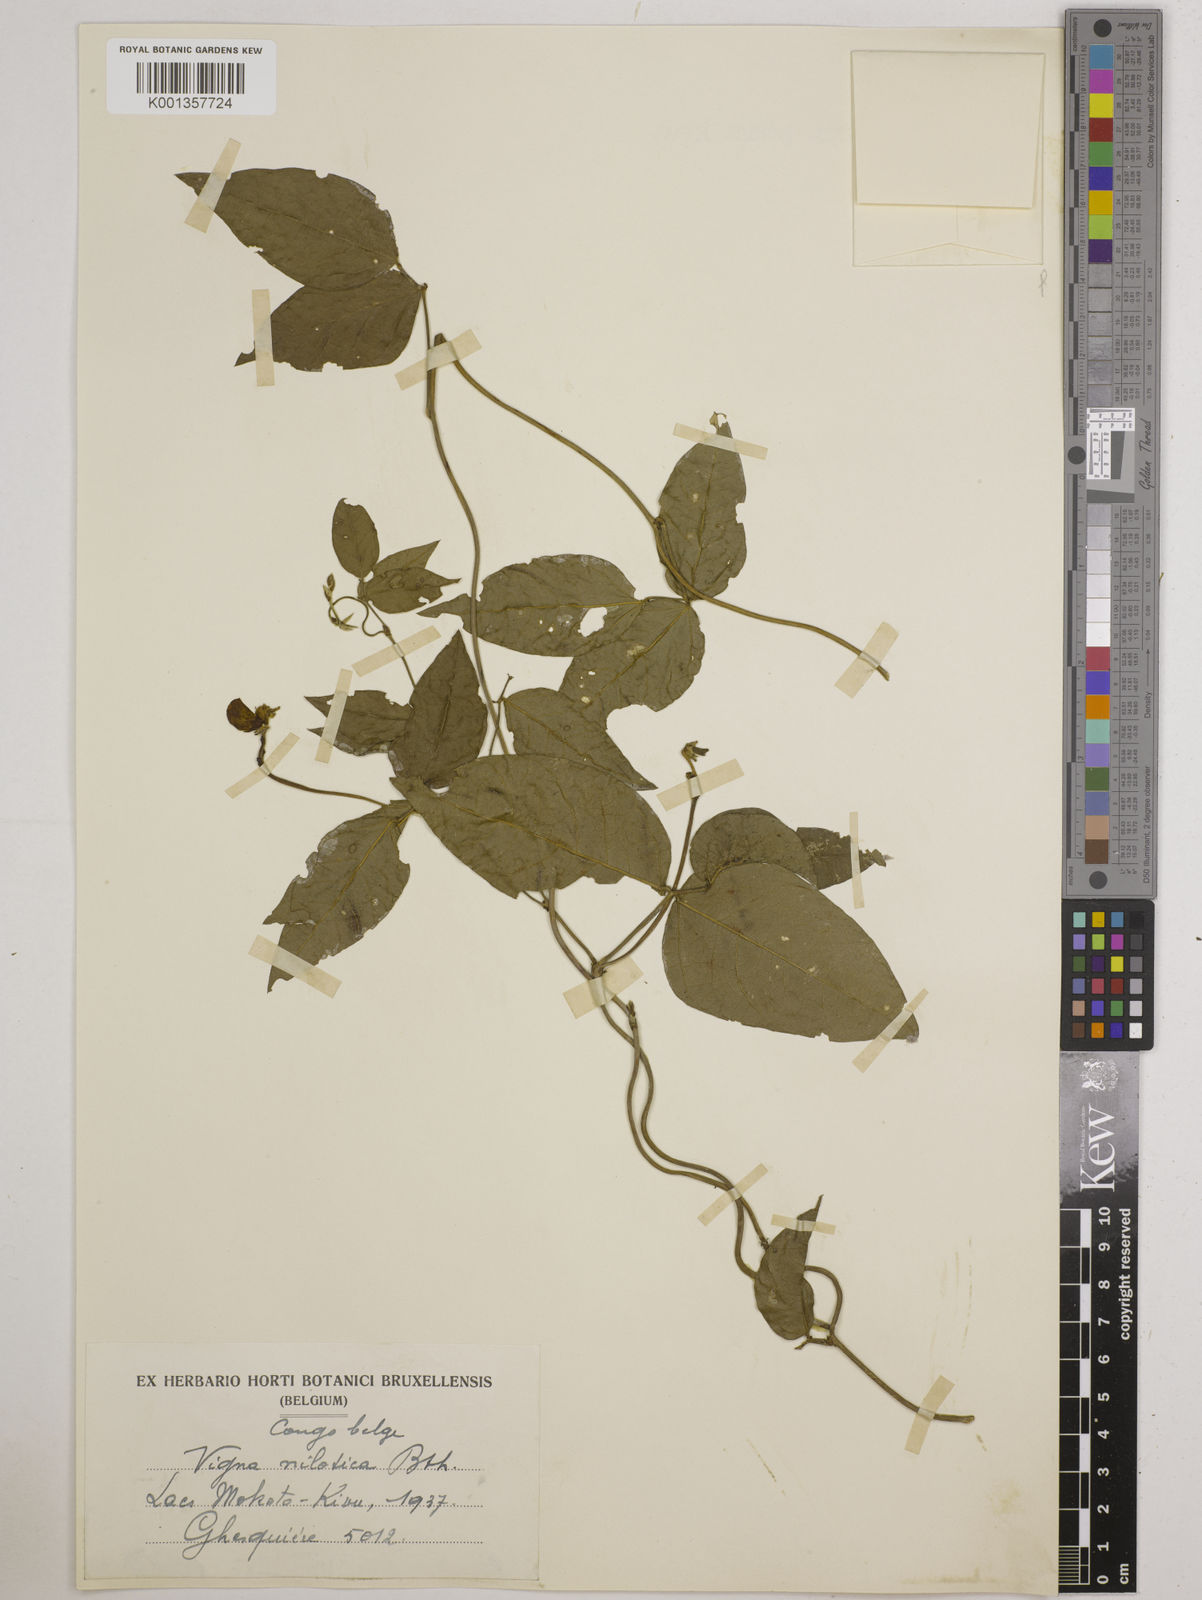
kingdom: Plantae
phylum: Tracheophyta
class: Magnoliopsida
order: Fabales
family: Fabaceae
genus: Vigna
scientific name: Vigna luteola
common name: Hairypod cowpea
